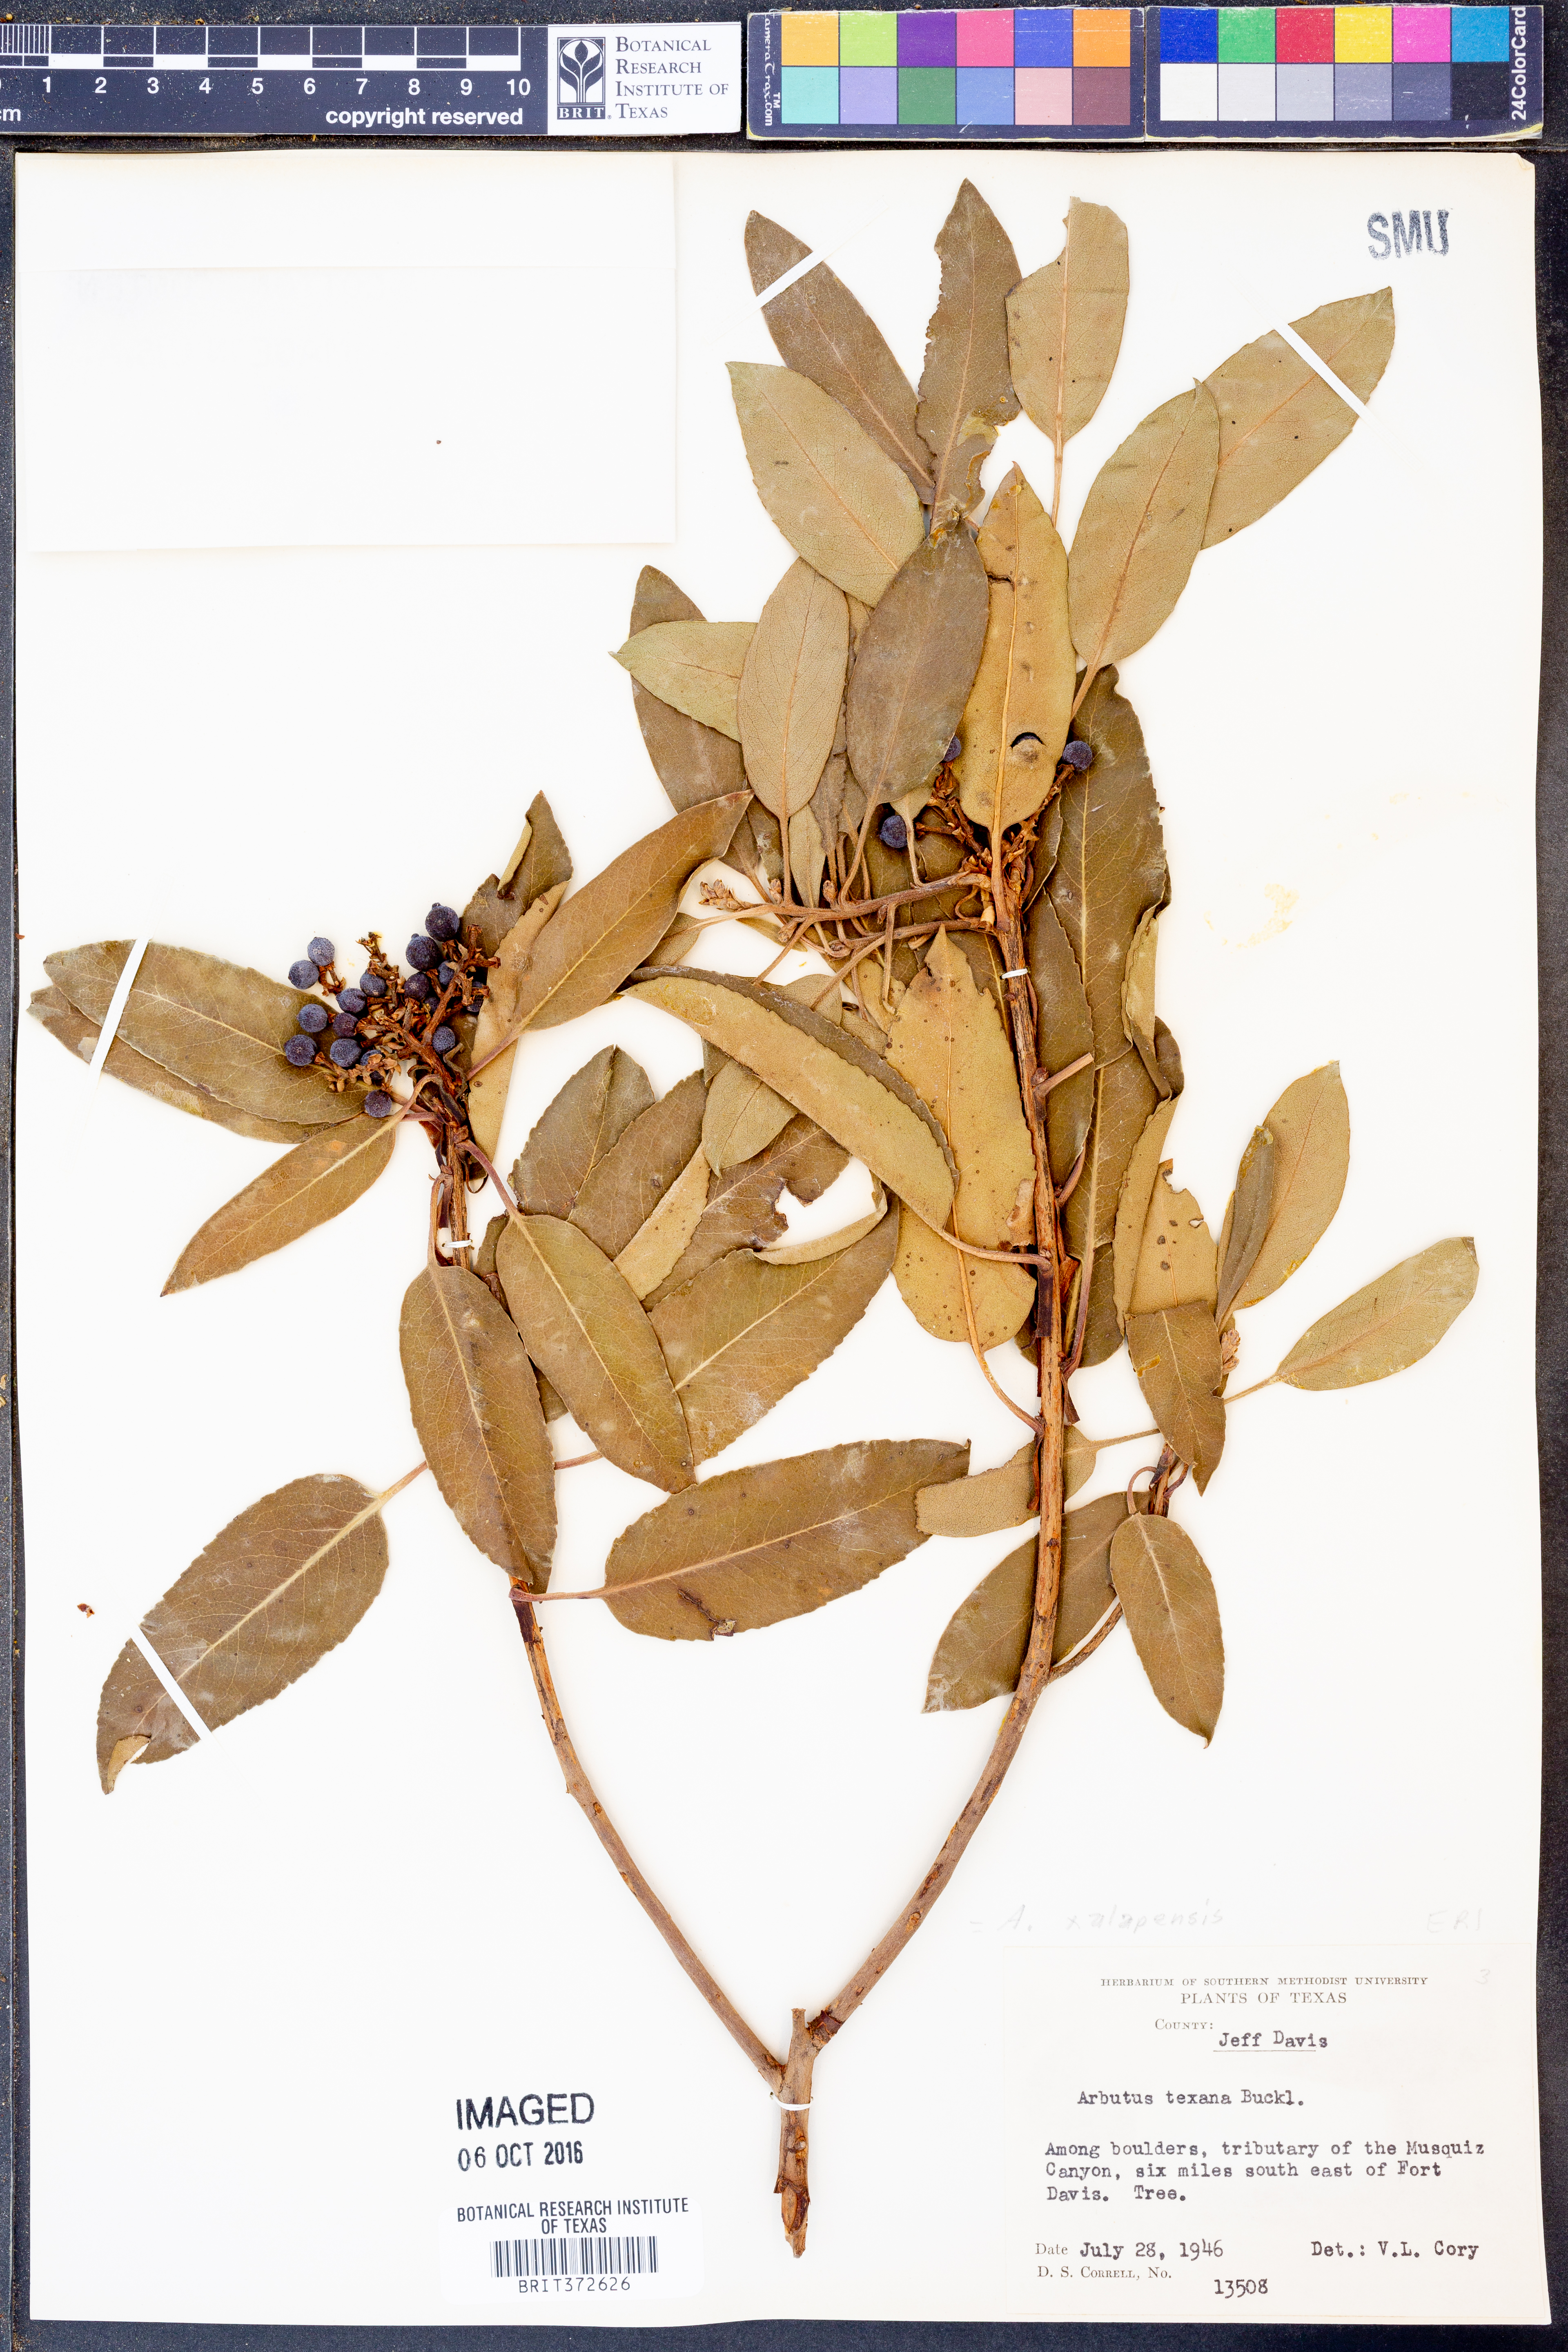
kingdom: Plantae
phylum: Tracheophyta
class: Magnoliopsida
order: Ericales
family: Ericaceae
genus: Arbutus
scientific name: Arbutus xalapensis
